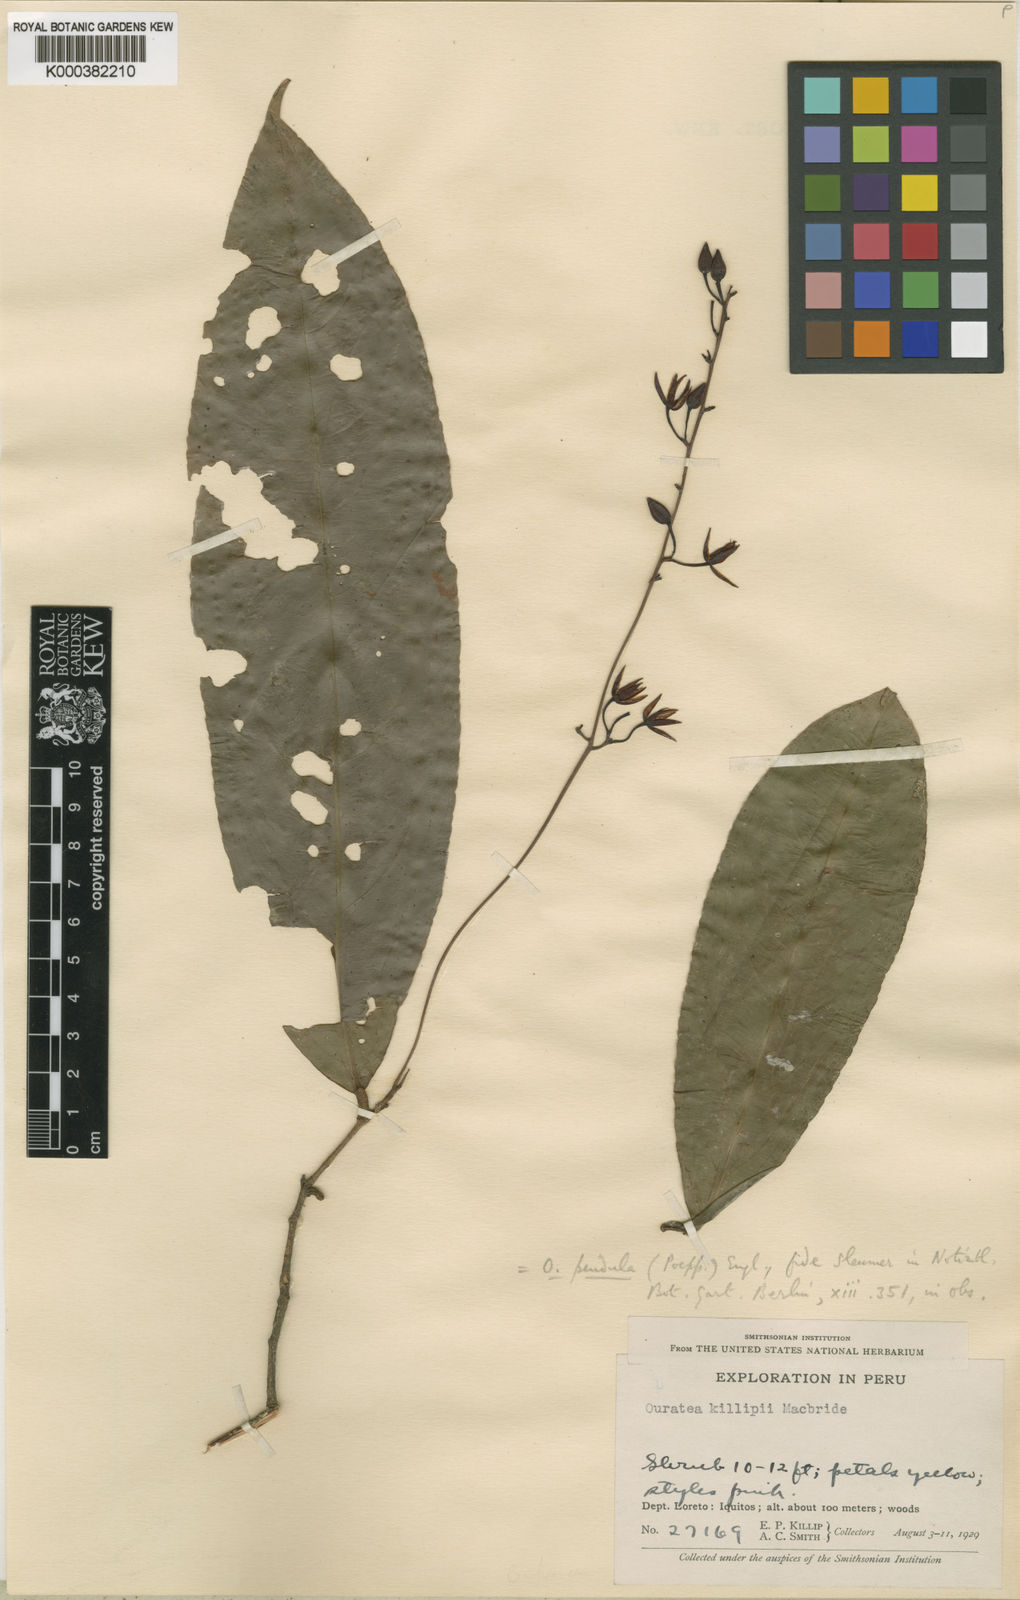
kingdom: Plantae
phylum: Tracheophyta
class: Magnoliopsida
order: Malpighiales
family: Ochnaceae
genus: Ouratea
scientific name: Ouratea pendula
